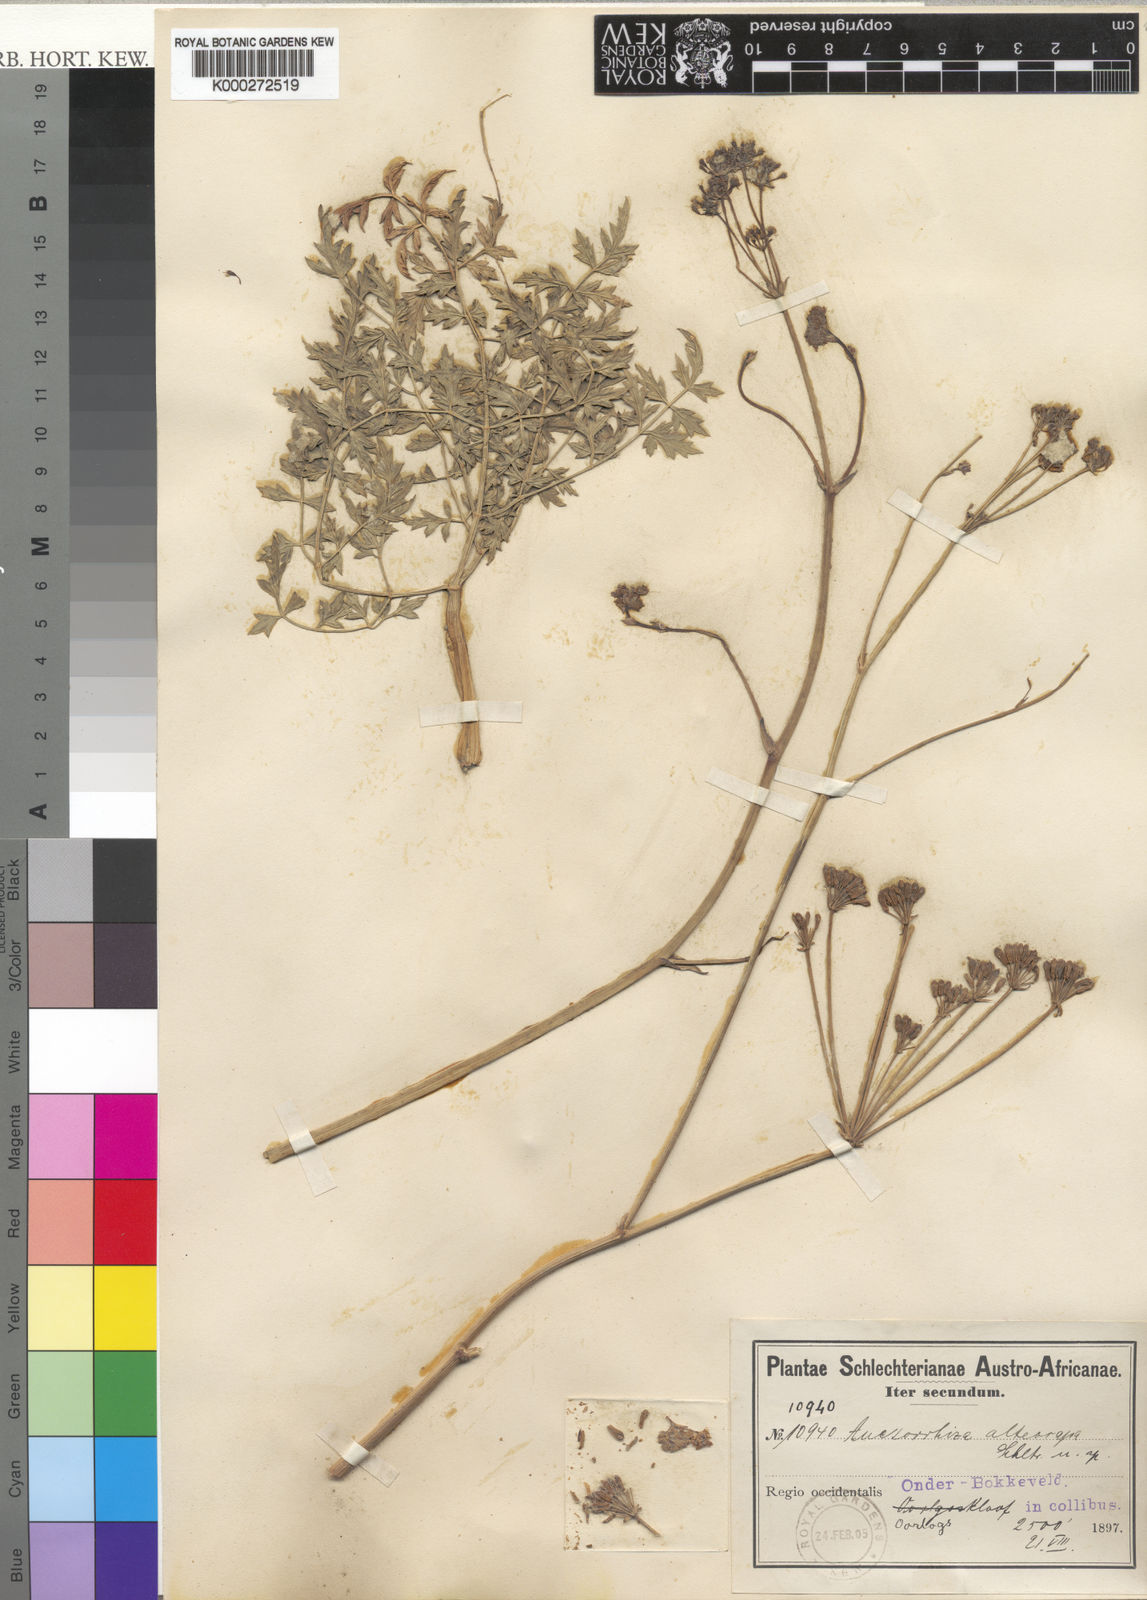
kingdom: Plantae
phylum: Tracheophyta
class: Magnoliopsida
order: Apiales
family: Apiaceae
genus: Annesorhiza
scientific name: Annesorhiza
